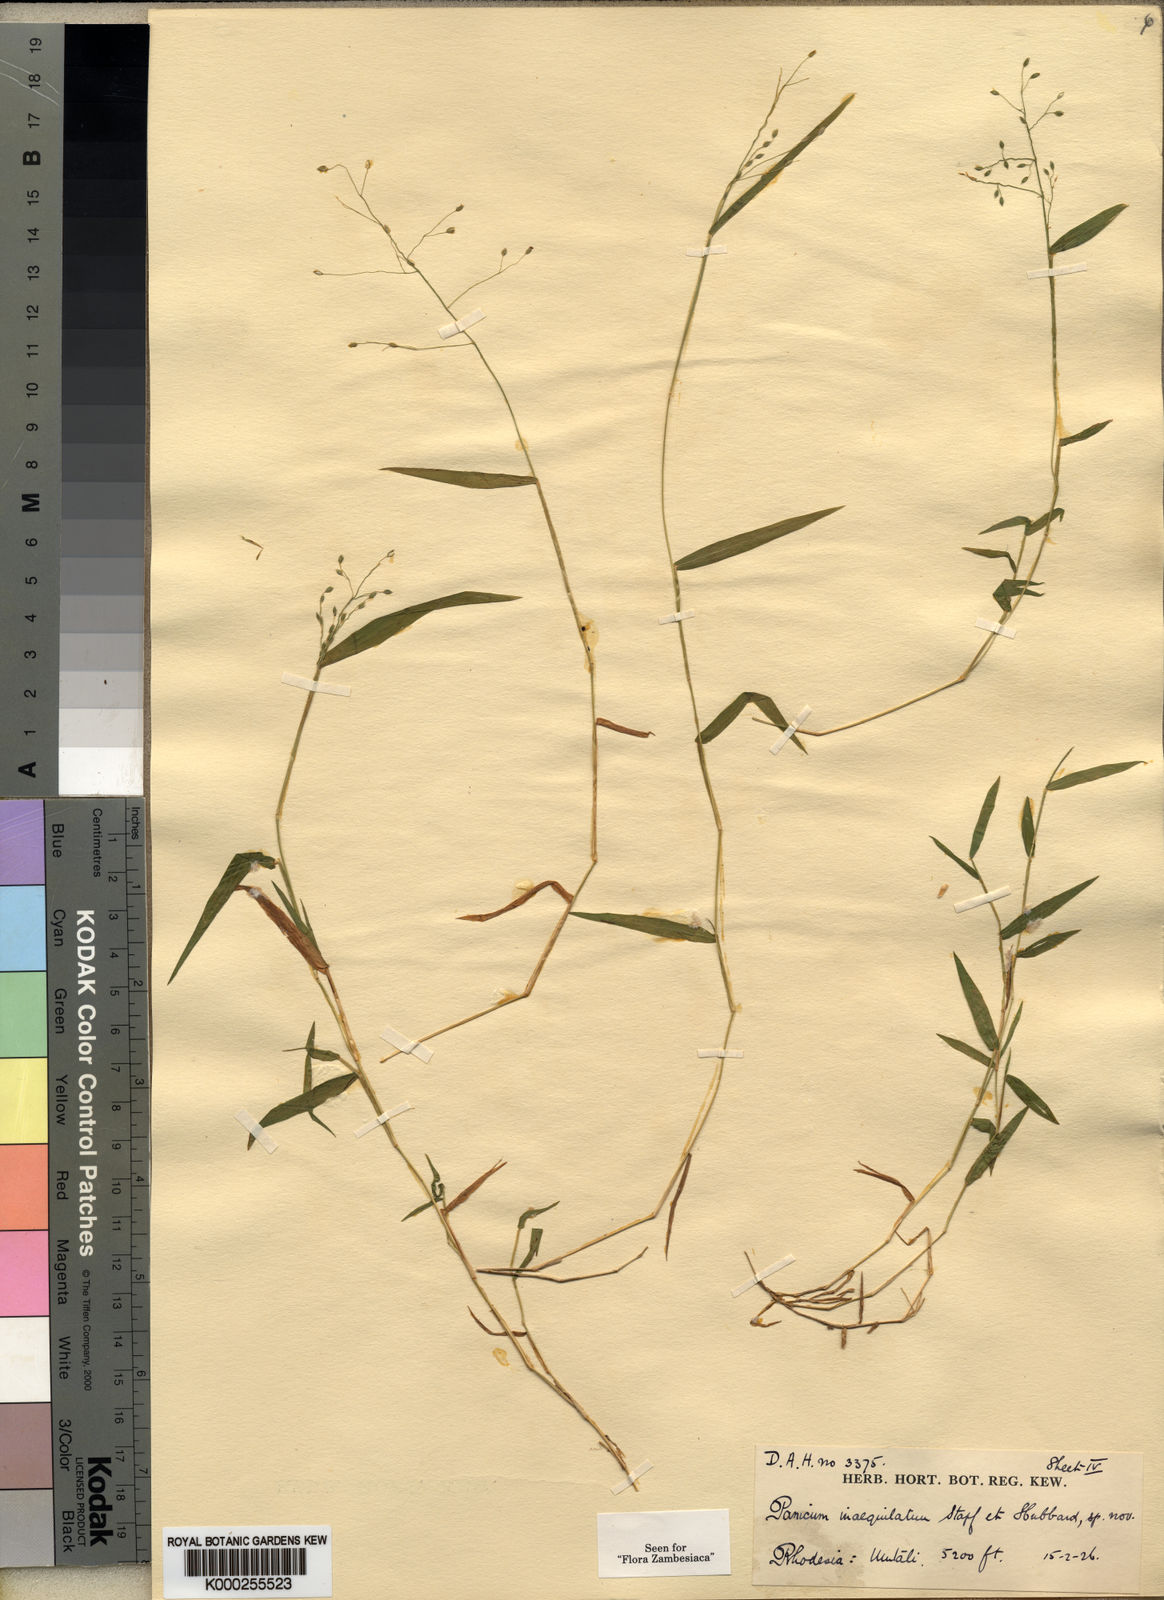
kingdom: Plantae
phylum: Tracheophyta
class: Liliopsida
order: Poales
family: Poaceae
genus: Panicum
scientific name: Panicum inaequilatum
